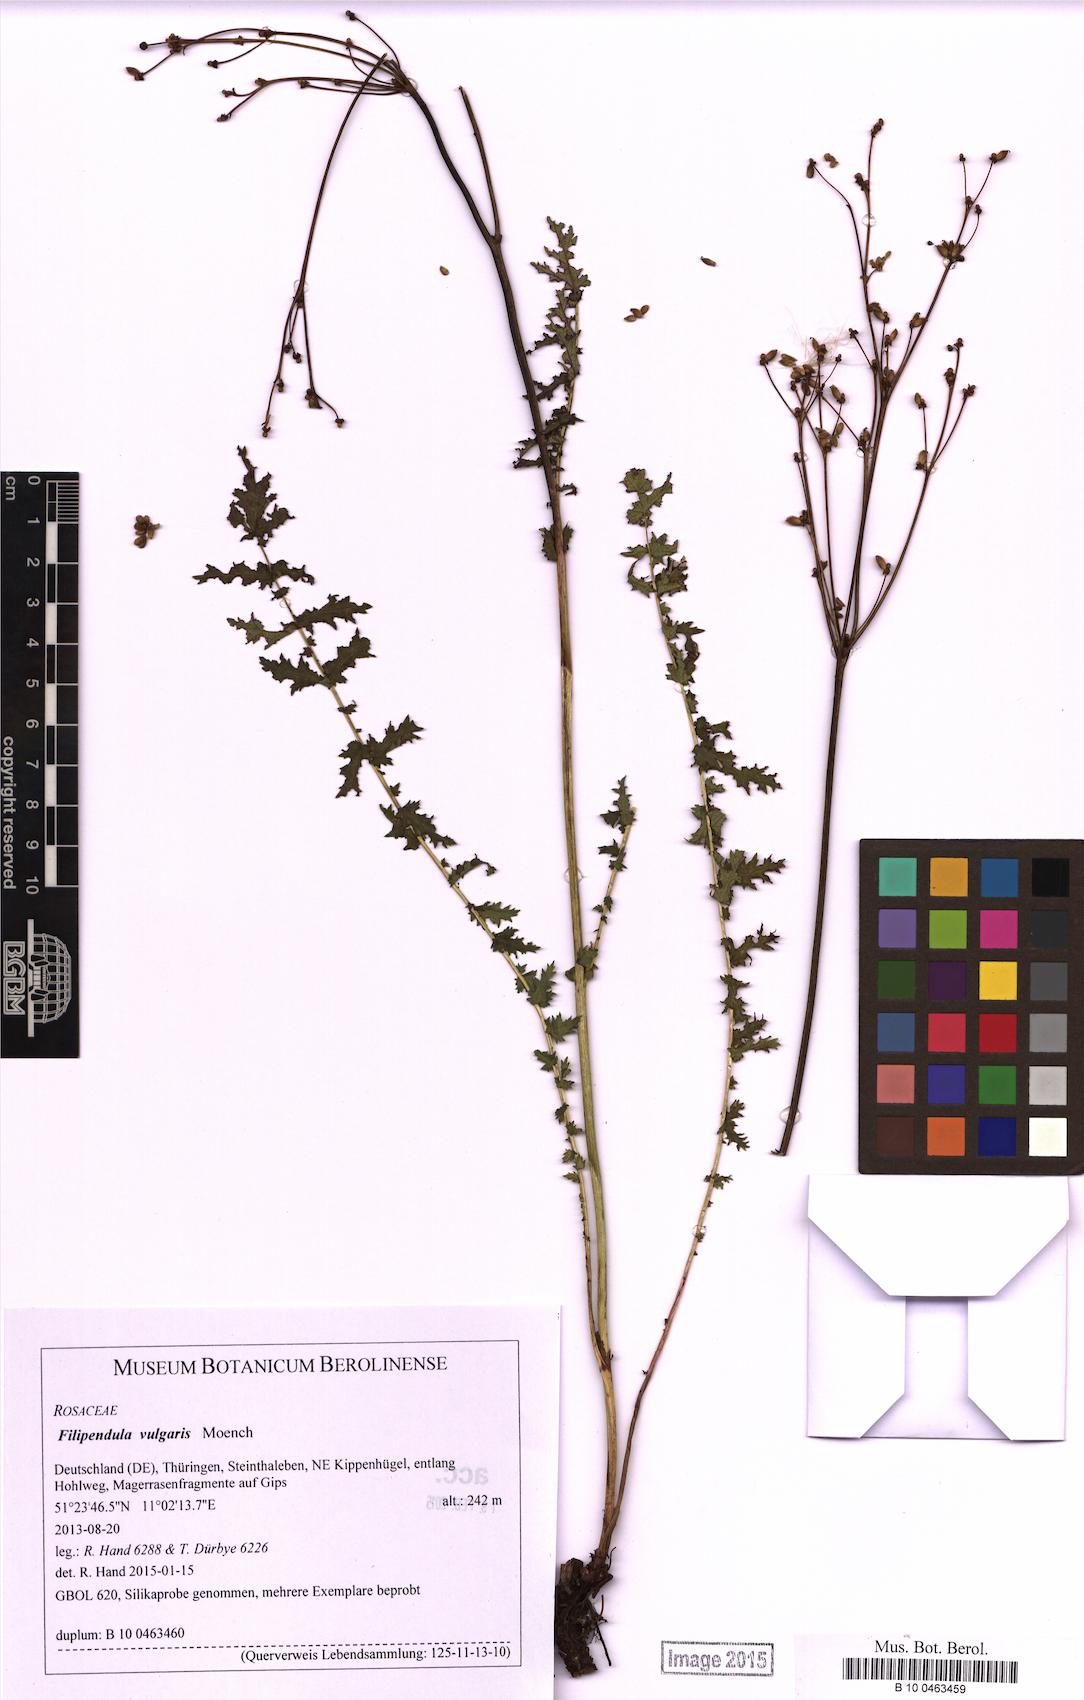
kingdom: Plantae
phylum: Tracheophyta
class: Magnoliopsida
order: Rosales
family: Rosaceae
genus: Filipendula
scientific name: Filipendula vulgaris
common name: Dropwort
